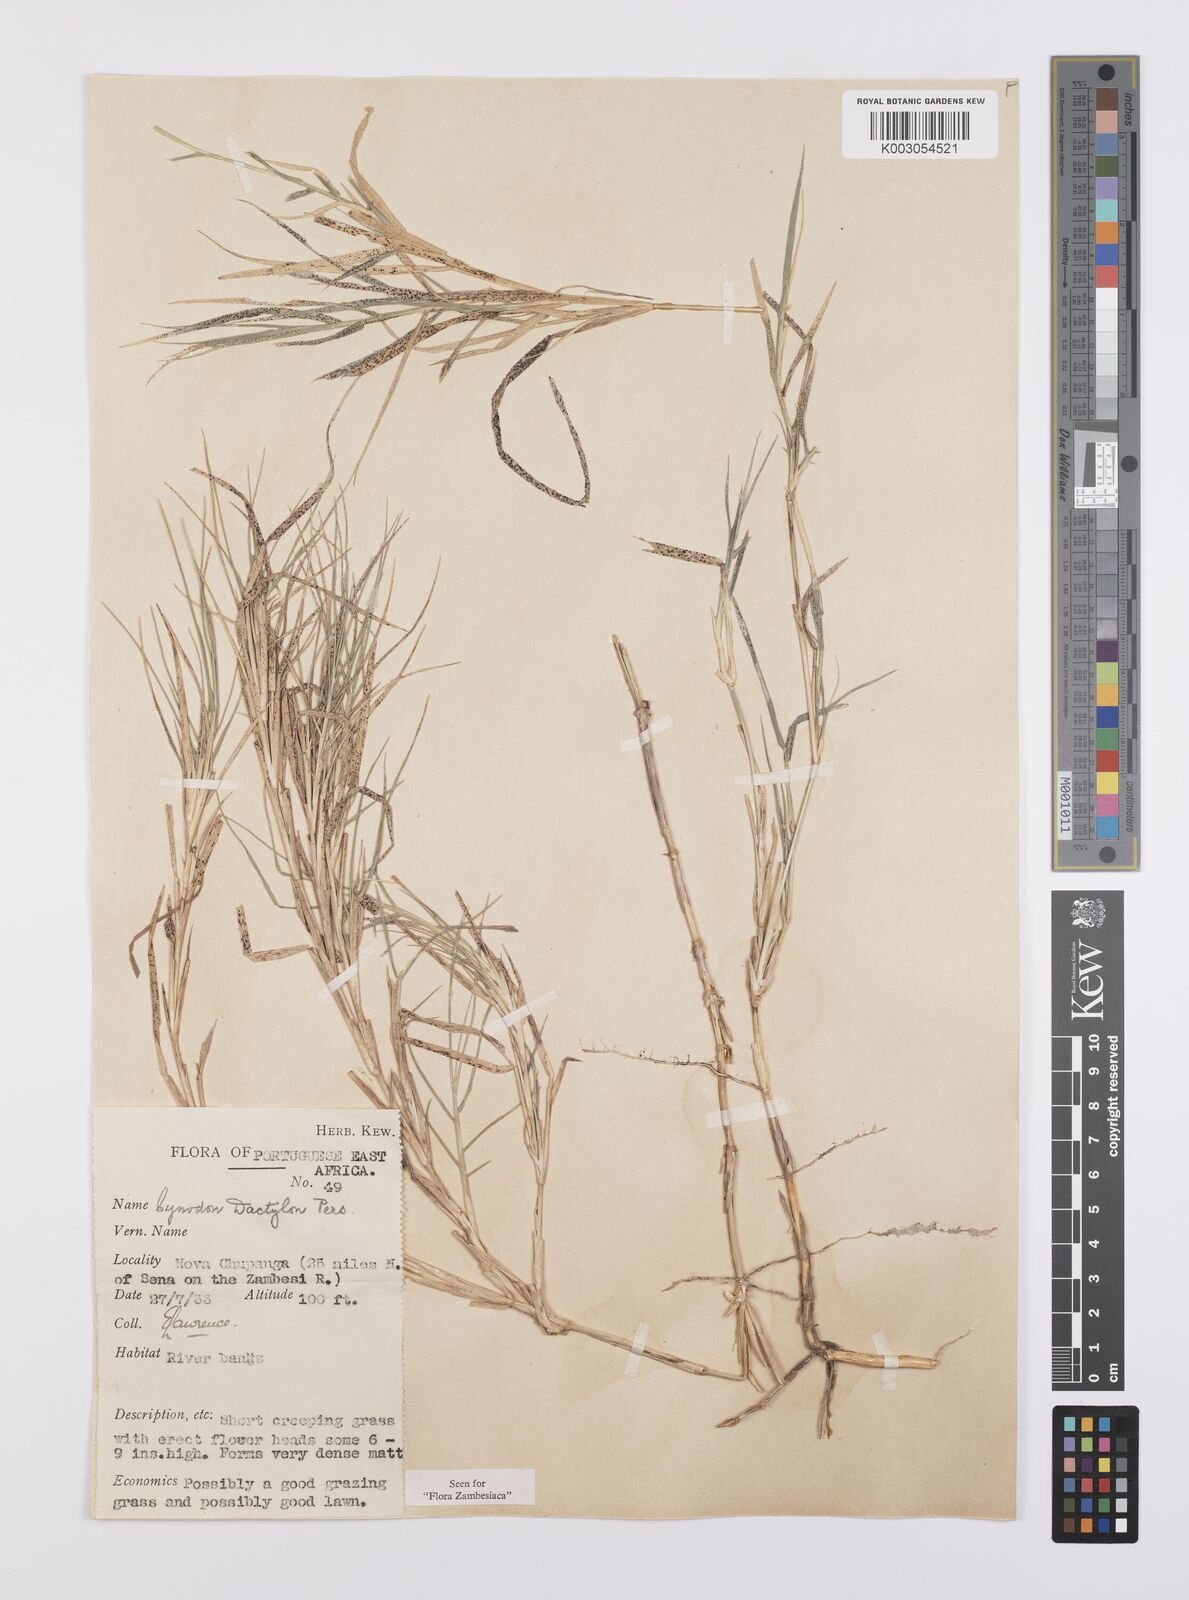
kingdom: Plantae
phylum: Tracheophyta
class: Liliopsida
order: Poales
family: Poaceae
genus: Cynodon
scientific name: Cynodon dactylon
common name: Bermuda grass
